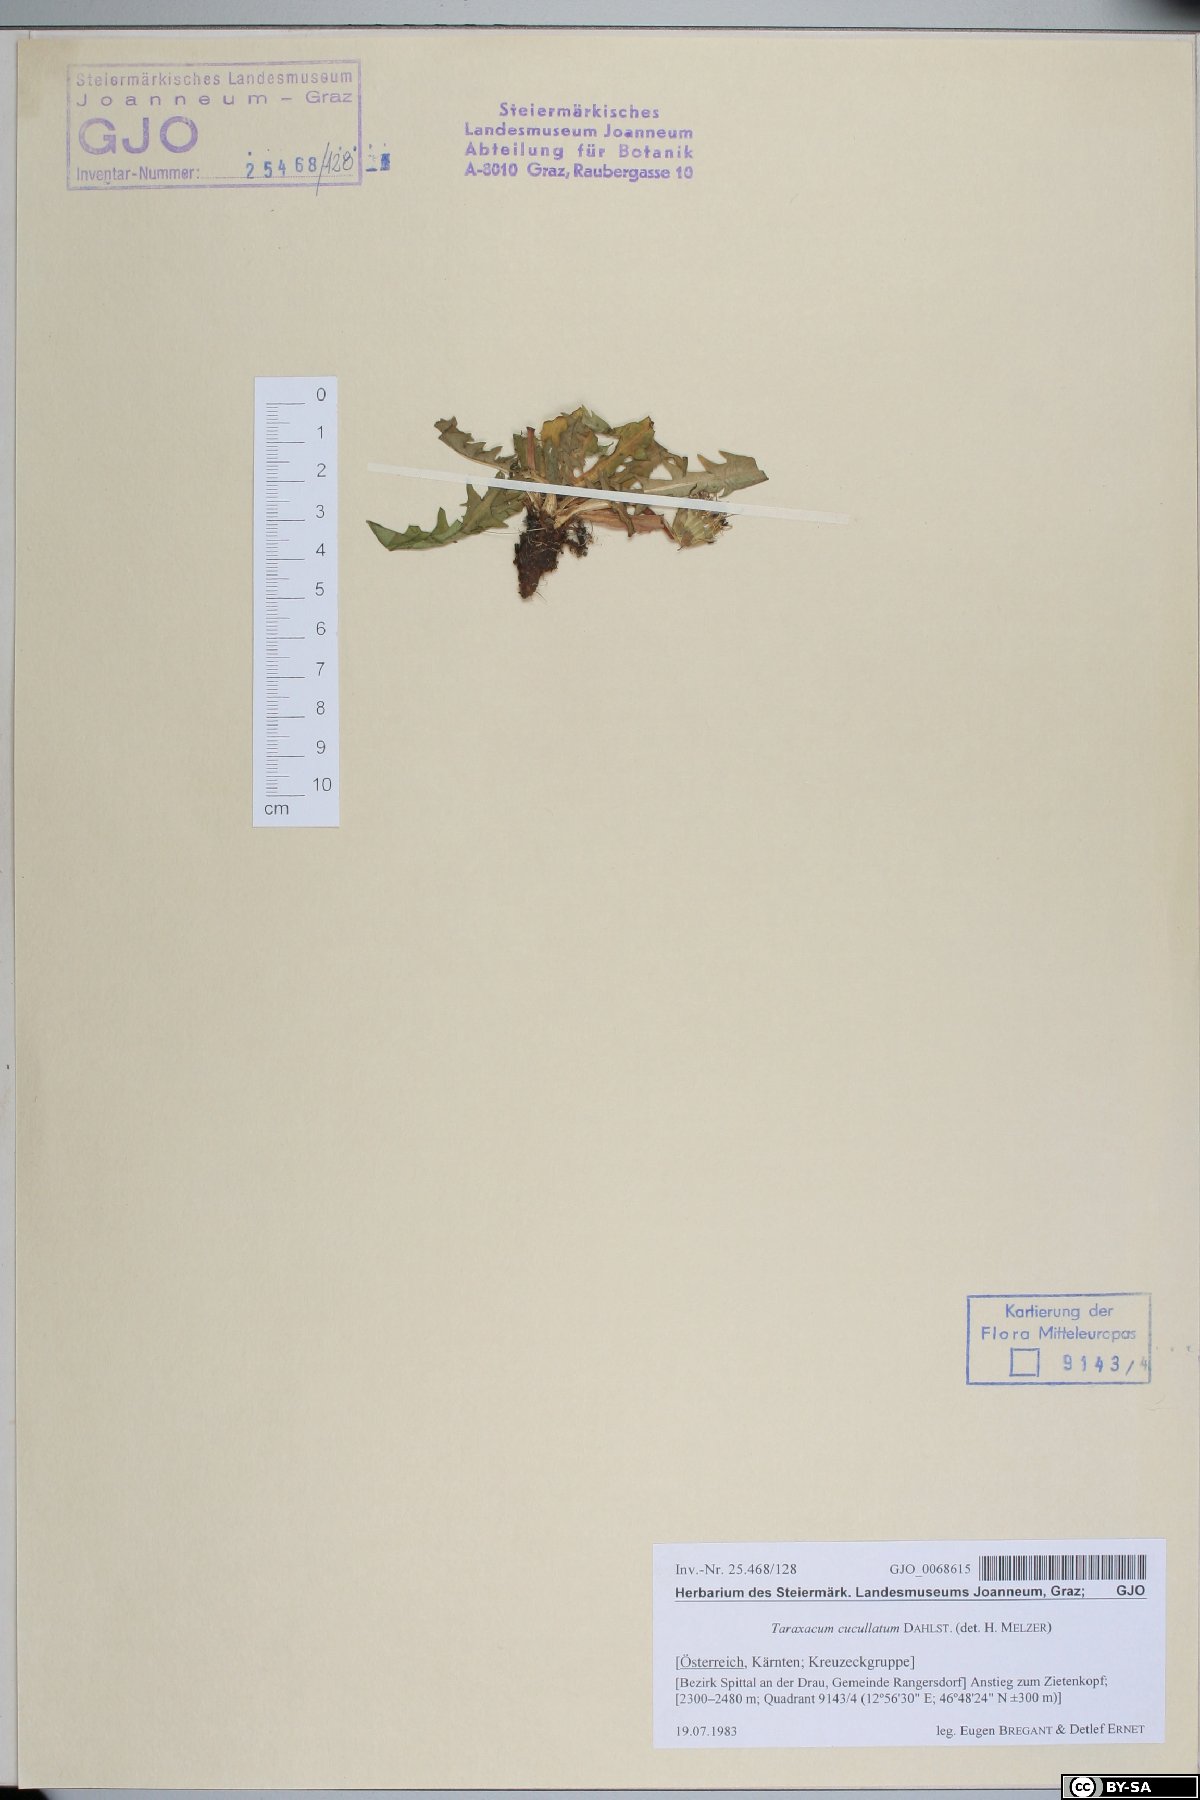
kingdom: Plantae
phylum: Tracheophyta
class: Magnoliopsida
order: Asterales
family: Asteraceae
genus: Taraxacum
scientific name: Taraxacum cucullatum
